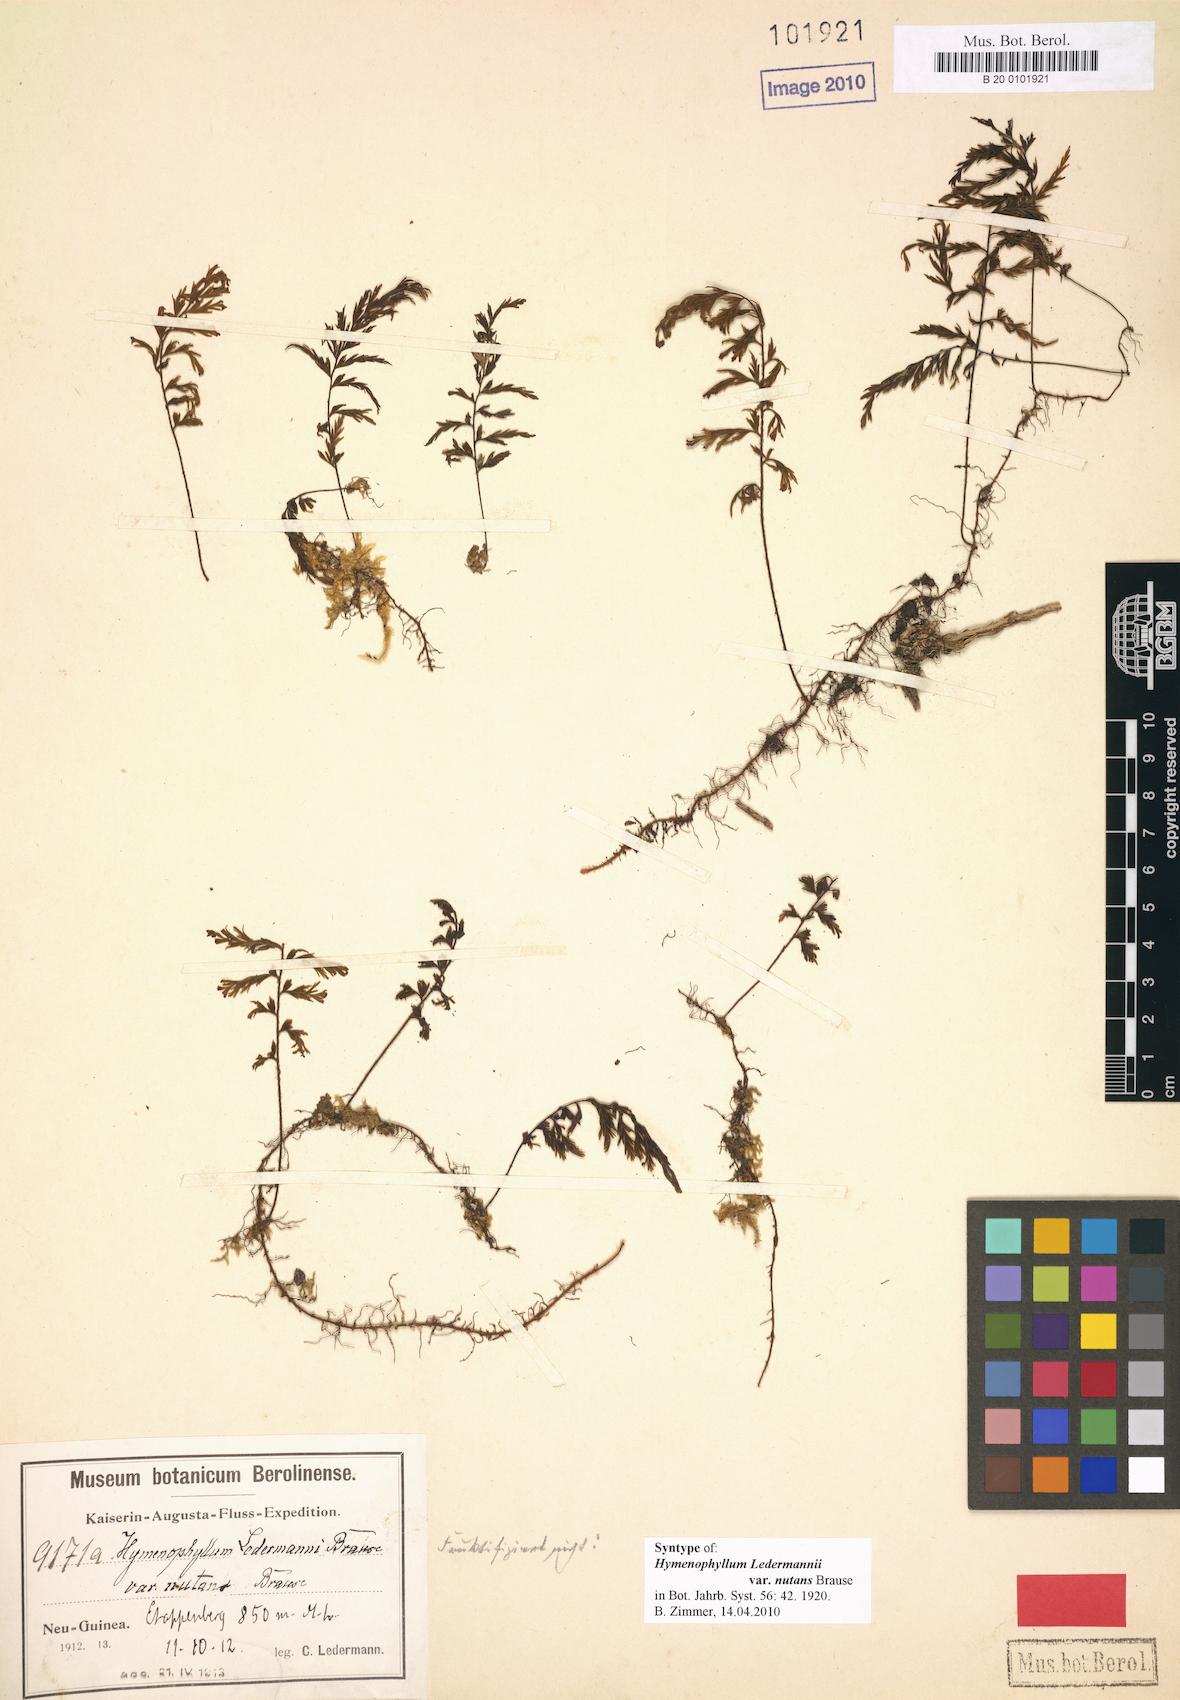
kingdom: Plantae
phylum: Tracheophyta
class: Polypodiopsida
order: Hymenophyllales
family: Hymenophyllaceae
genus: Hymenophyllum
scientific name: Hymenophyllum ledermannii
